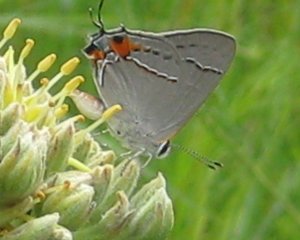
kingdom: Animalia
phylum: Arthropoda
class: Insecta
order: Lepidoptera
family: Lycaenidae
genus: Strymon
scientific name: Strymon melinus
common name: Gray Hairstreak
